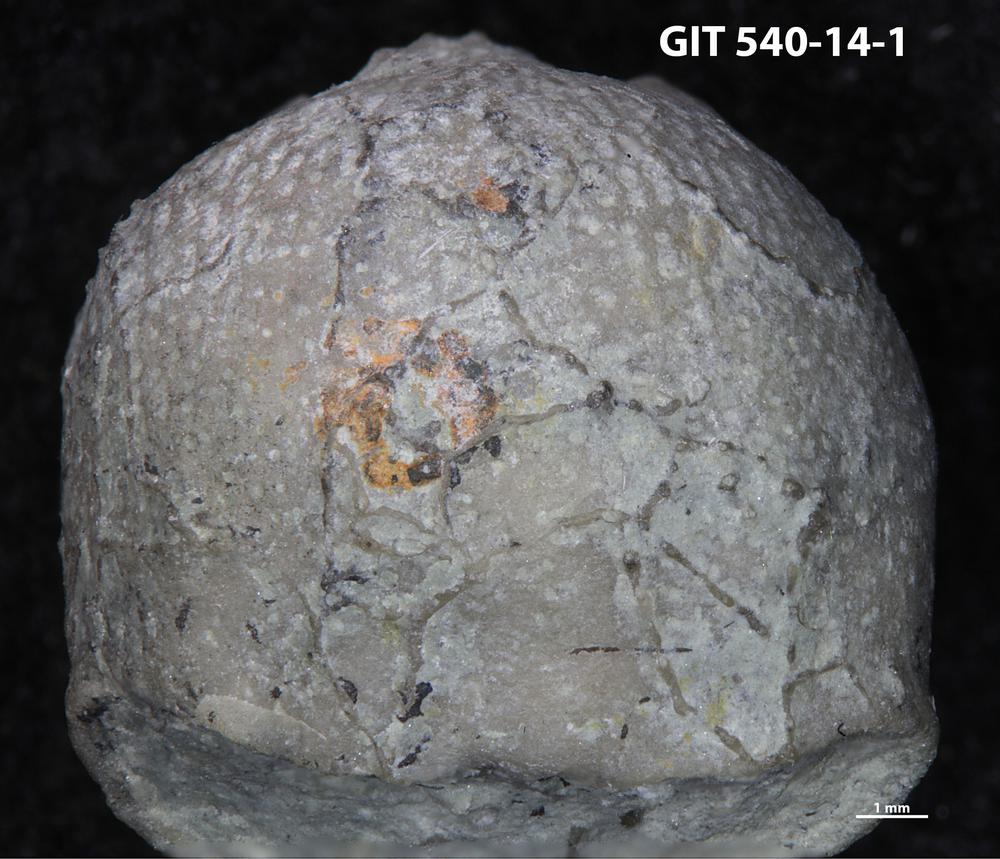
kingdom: Animalia
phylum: Bryozoa
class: Stenolaemata
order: Cyclostomatida
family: Corynotrypidae
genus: Corynotrypa
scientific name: Corynotrypa
